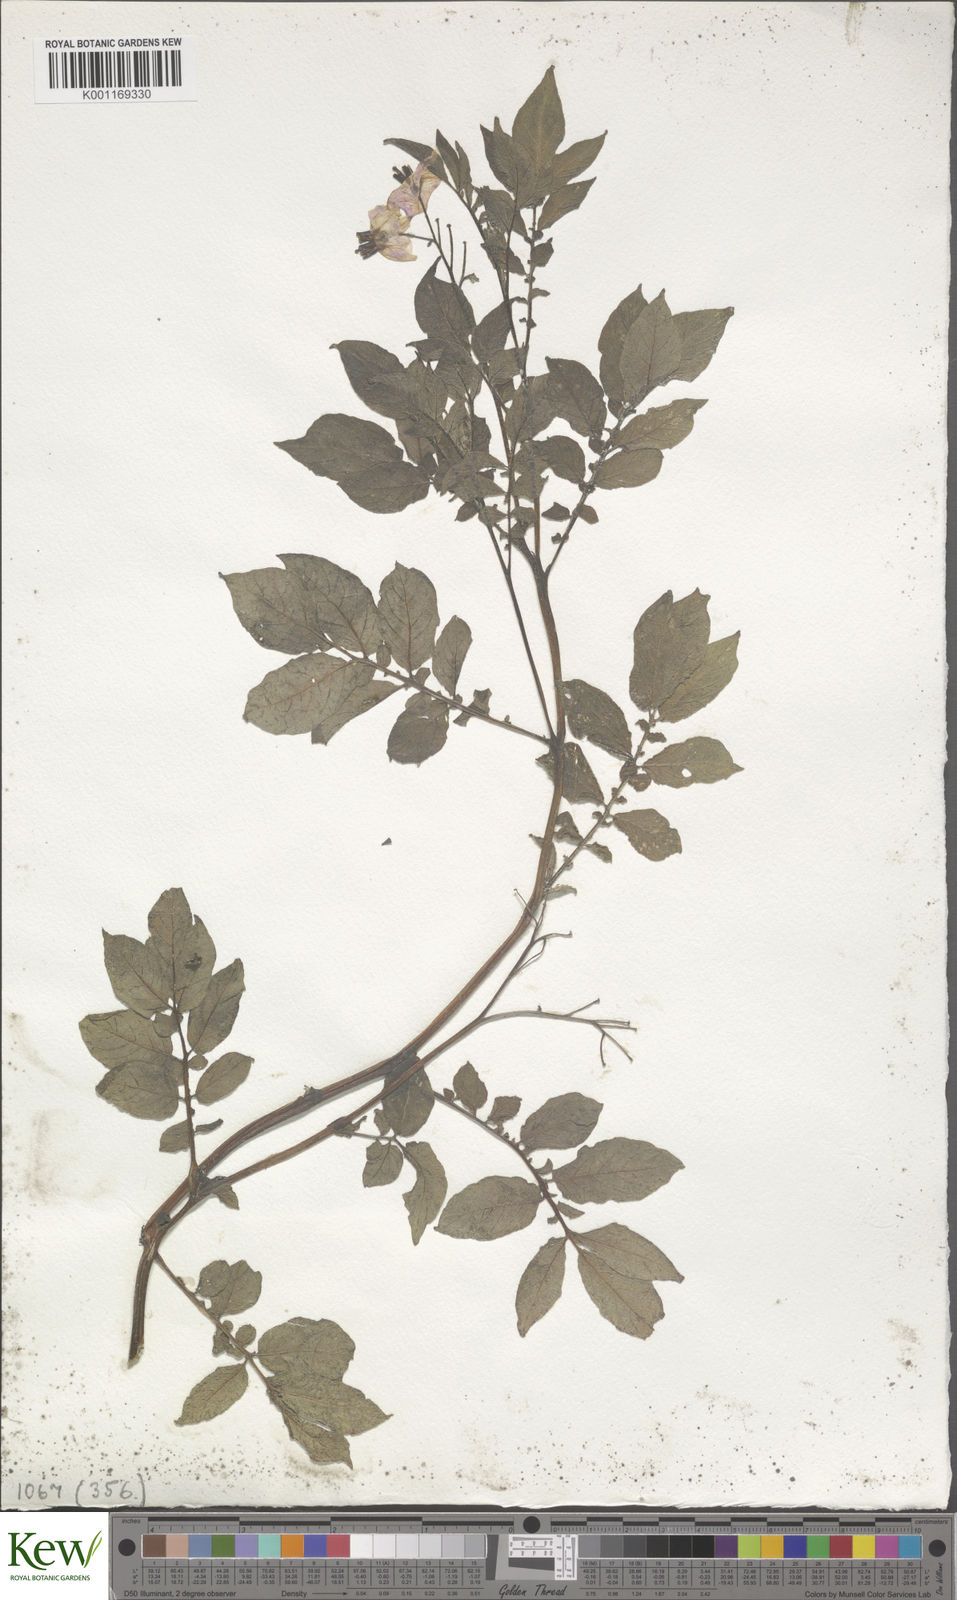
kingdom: Plantae
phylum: Tracheophyta
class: Magnoliopsida
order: Solanales
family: Solanaceae
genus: Solanum
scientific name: Solanum chaucha
